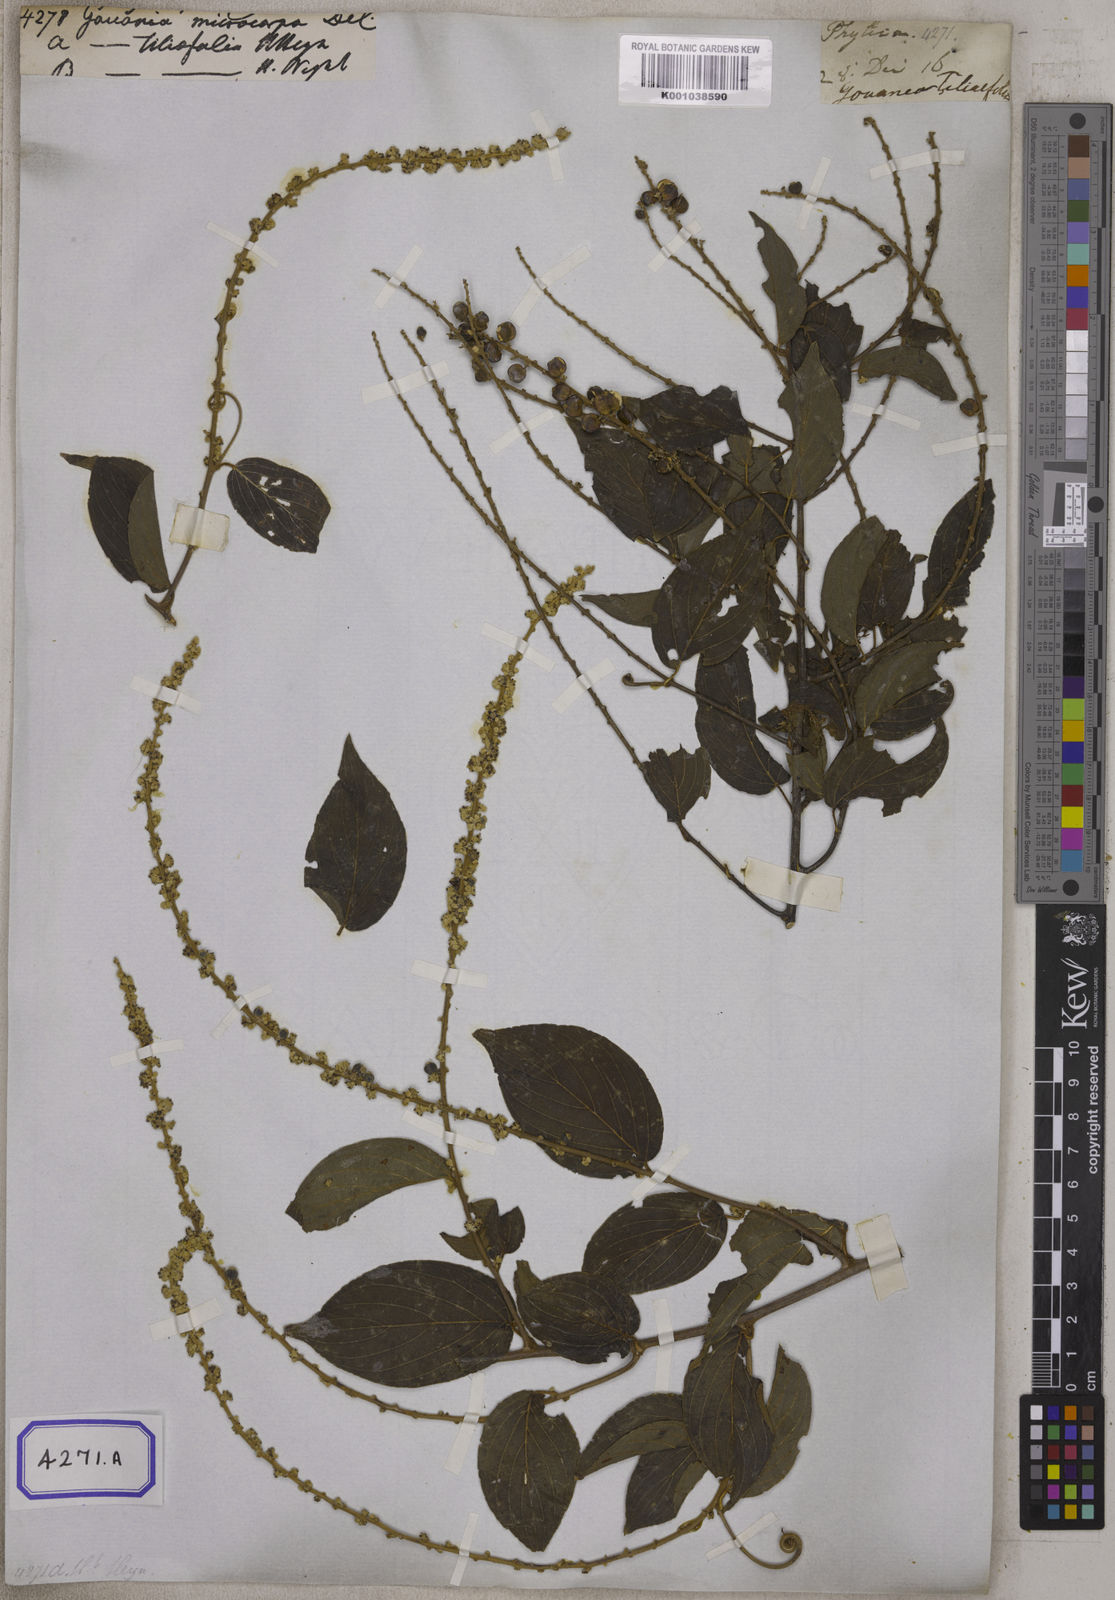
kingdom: Plantae
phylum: Tracheophyta
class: Magnoliopsida
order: Rosales
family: Rhamnaceae
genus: Gouania
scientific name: Gouania microcarpa
